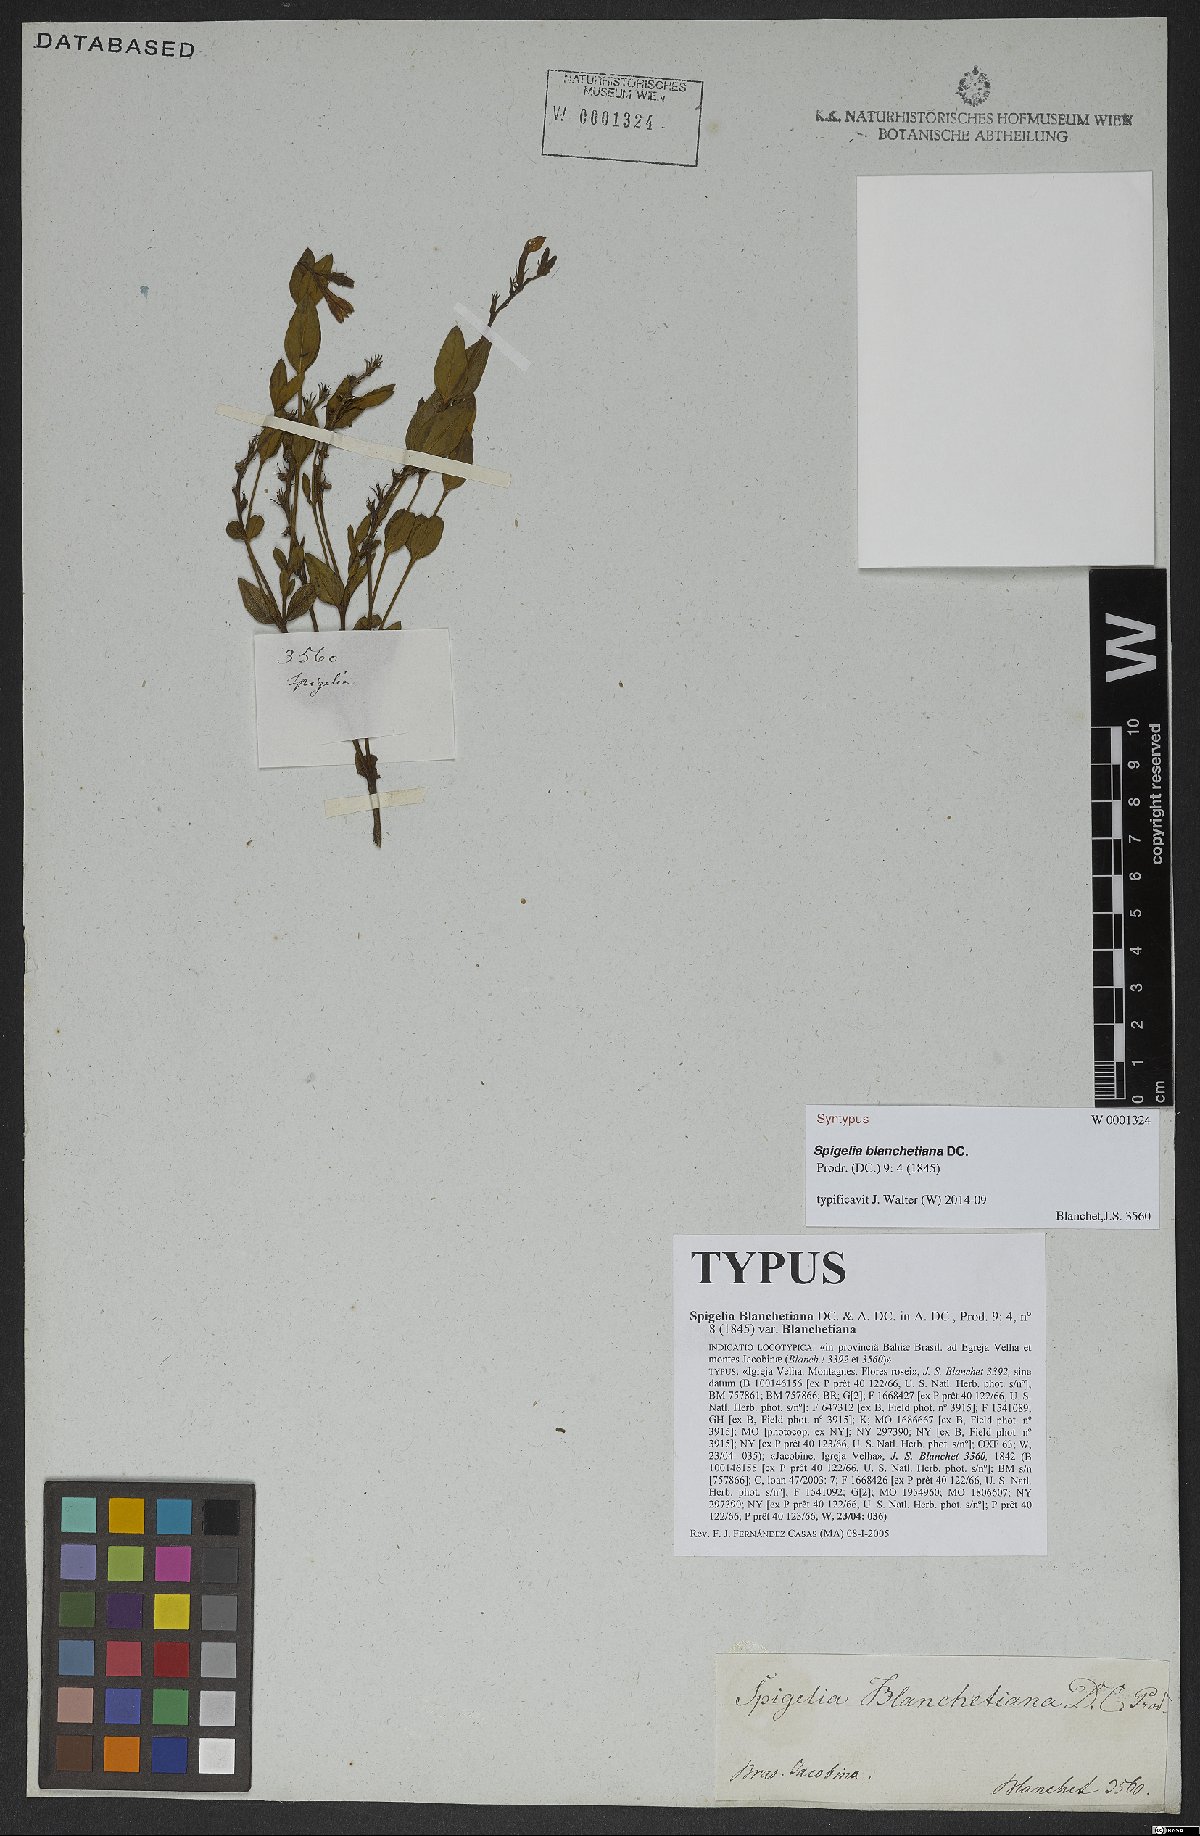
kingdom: Plantae
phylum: Tracheophyta
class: Magnoliopsida
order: Gentianales
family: Loganiaceae
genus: Spigelia
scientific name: Spigelia blanchetiana
